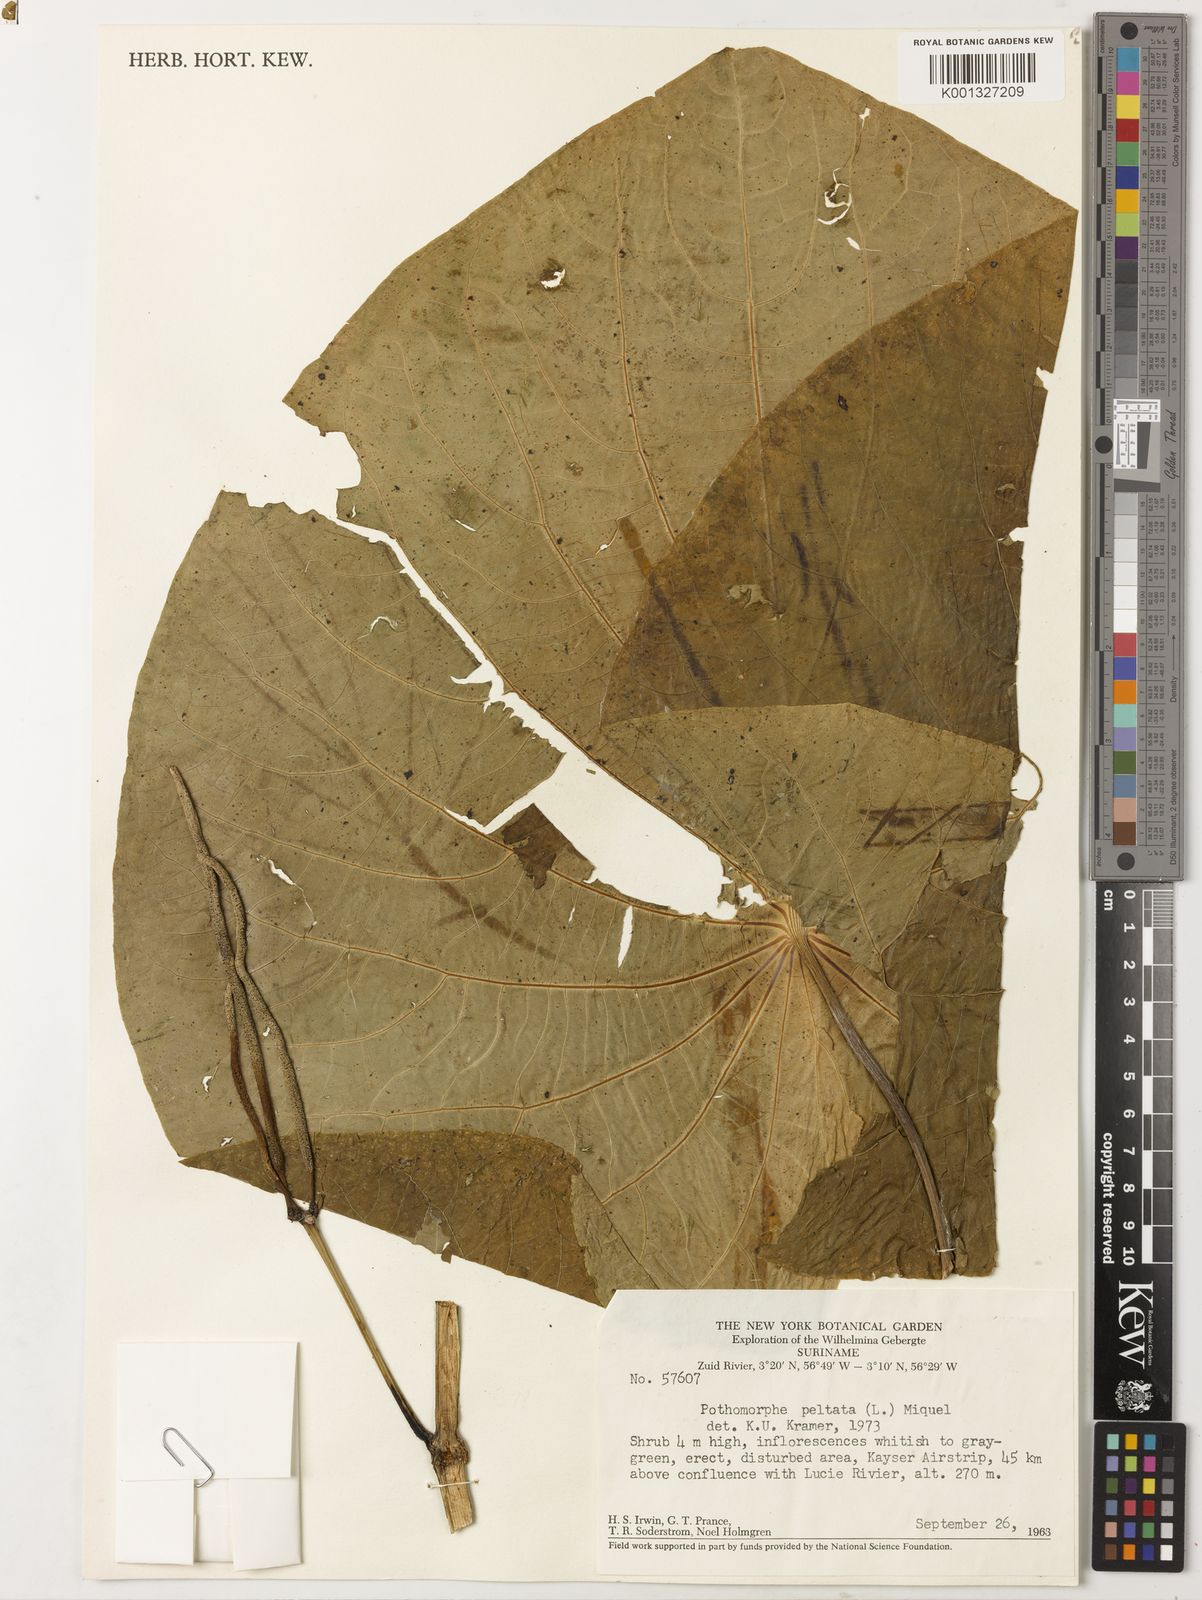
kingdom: Plantae
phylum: Tracheophyta
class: Magnoliopsida
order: Piperales
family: Piperaceae
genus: Piper
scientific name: Piper peltatum
